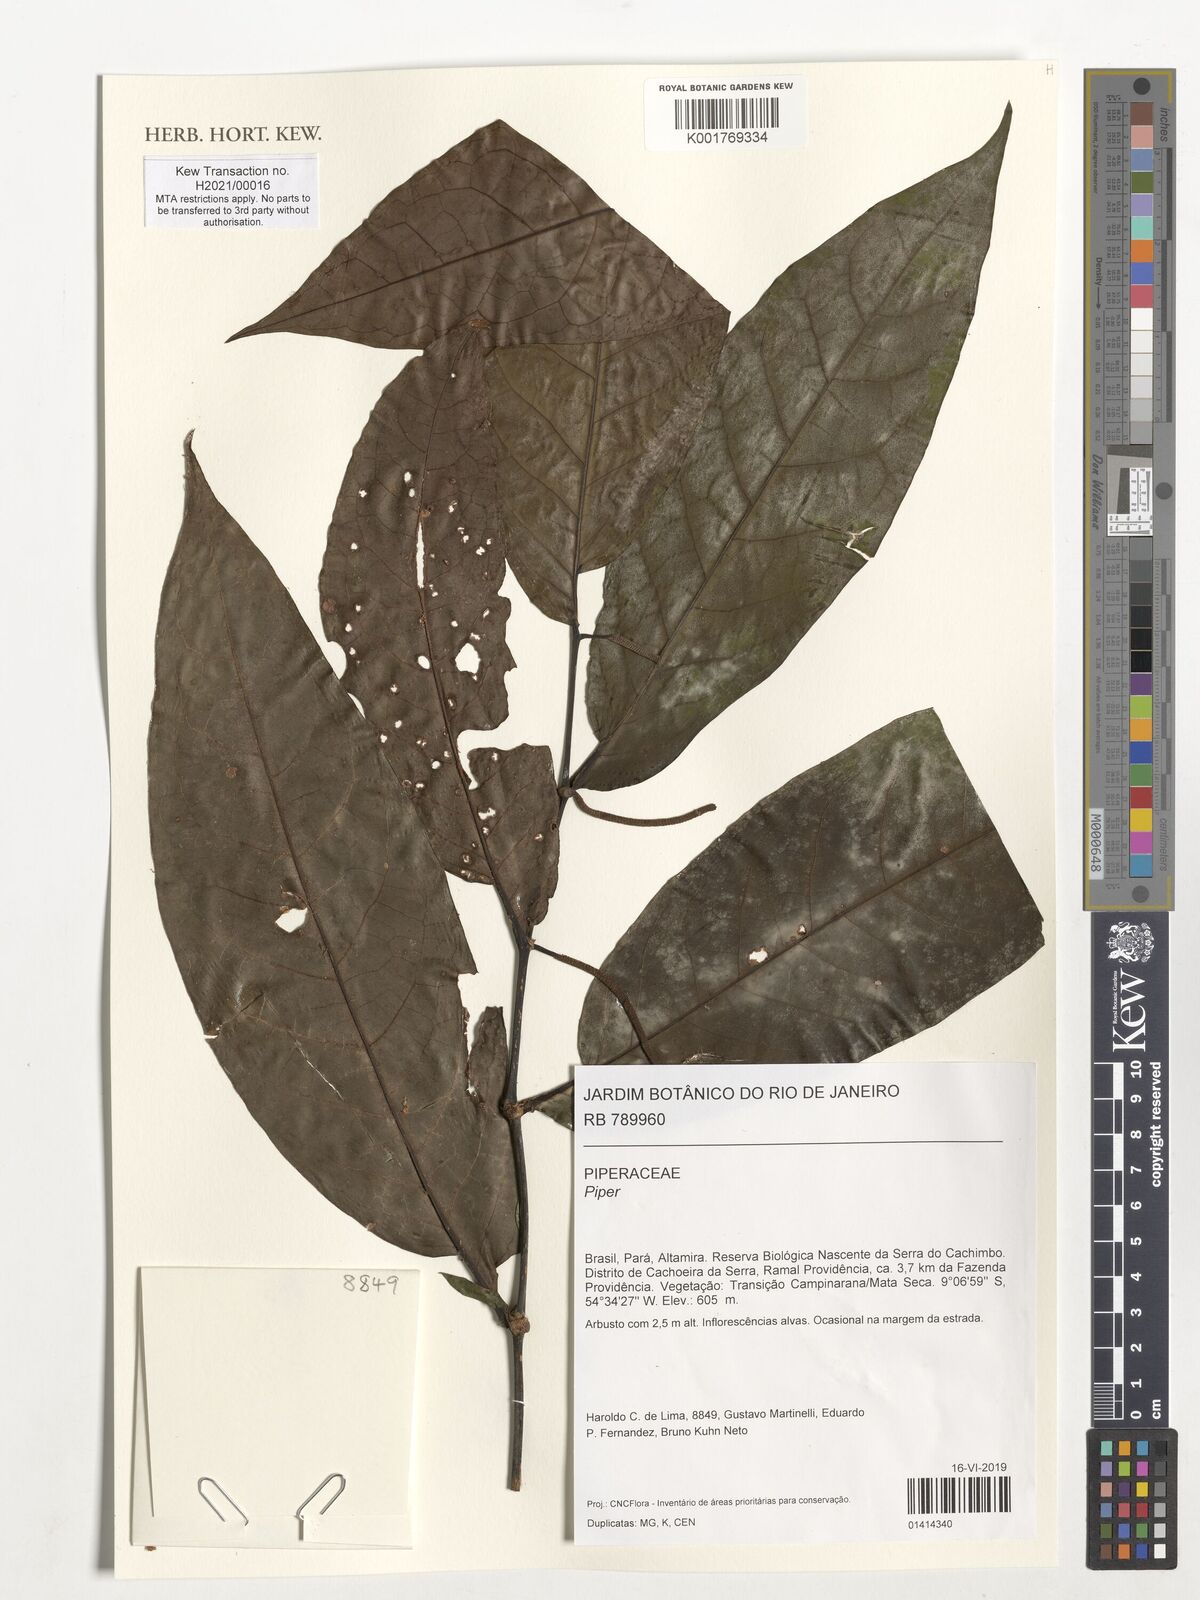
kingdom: Plantae
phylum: Tracheophyta
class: Magnoliopsida
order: Piperales
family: Piperaceae
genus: Piper
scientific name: Piper
